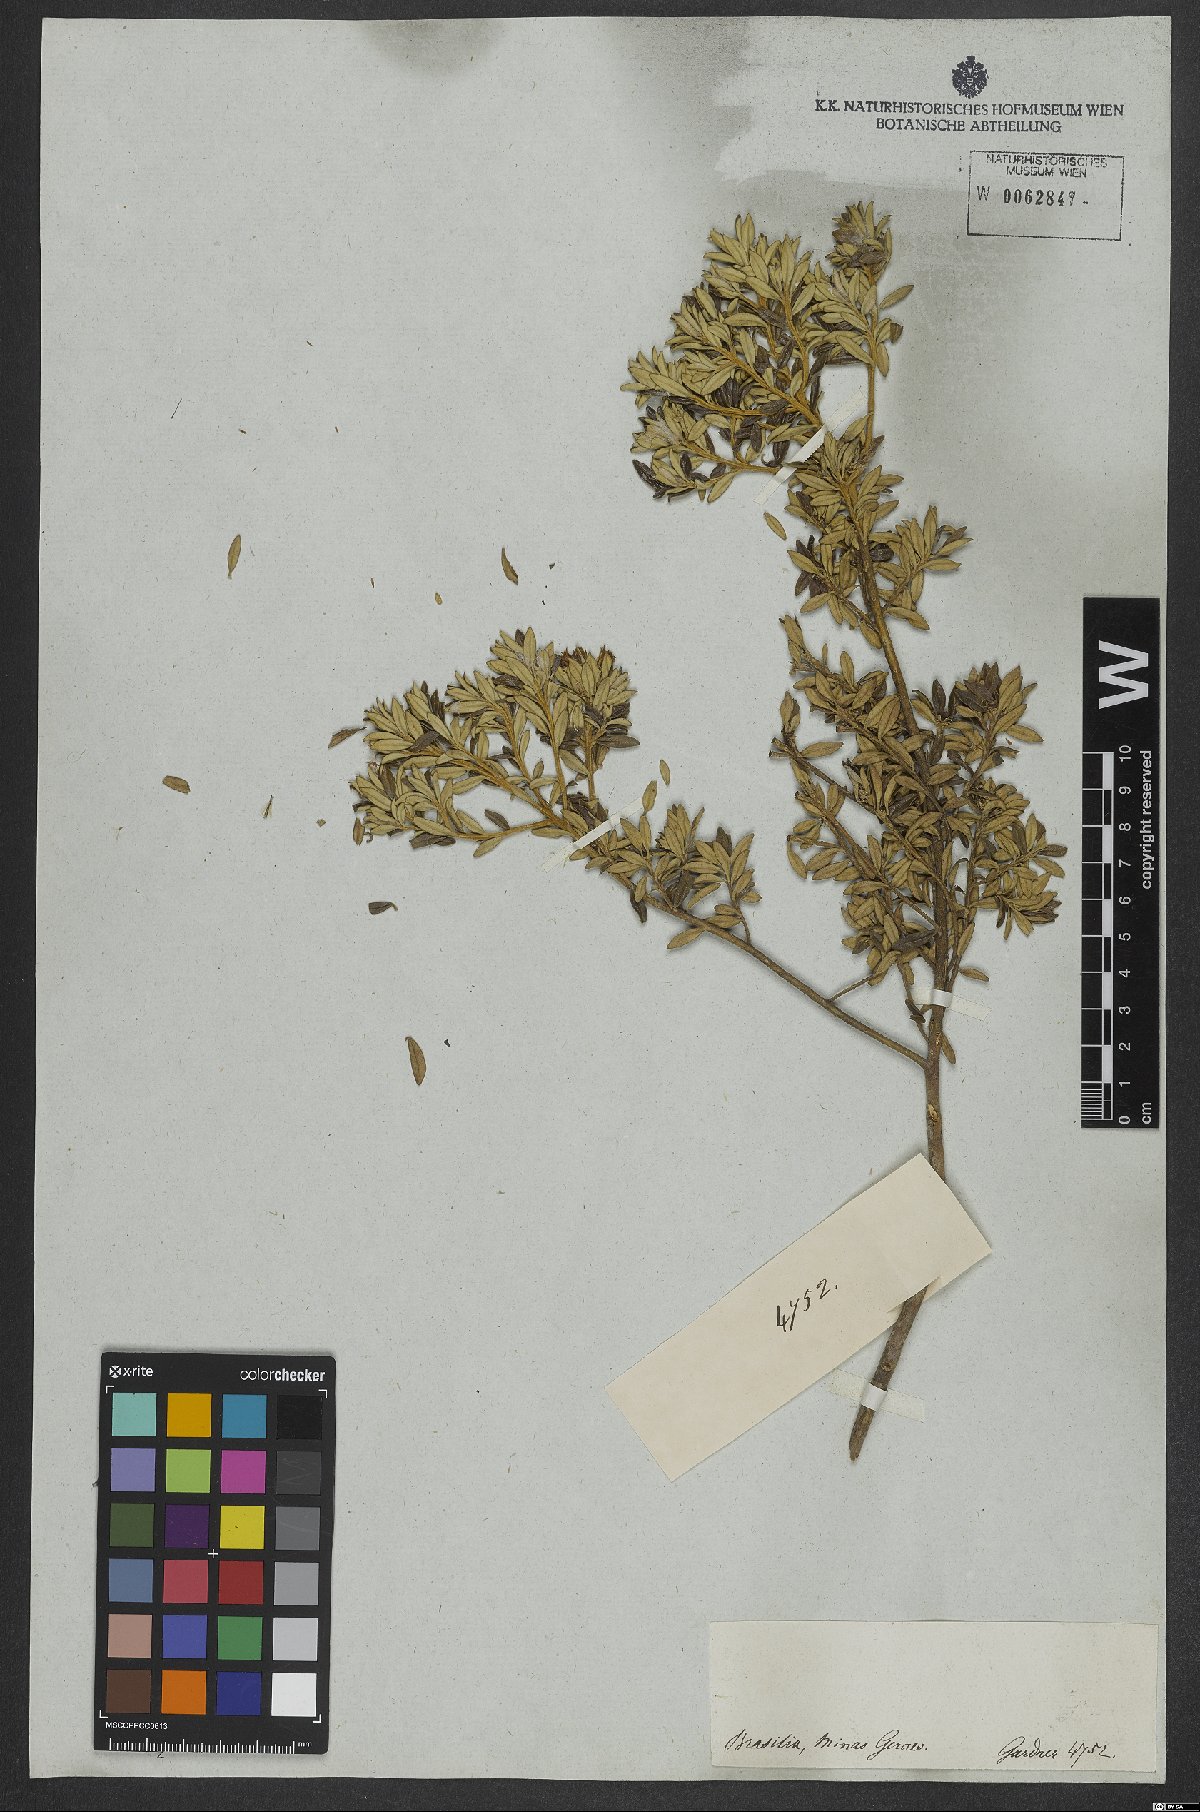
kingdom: Plantae
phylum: Tracheophyta
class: Magnoliopsida
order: Asterales
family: Asteraceae
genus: Baccharis
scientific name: Baccharis
